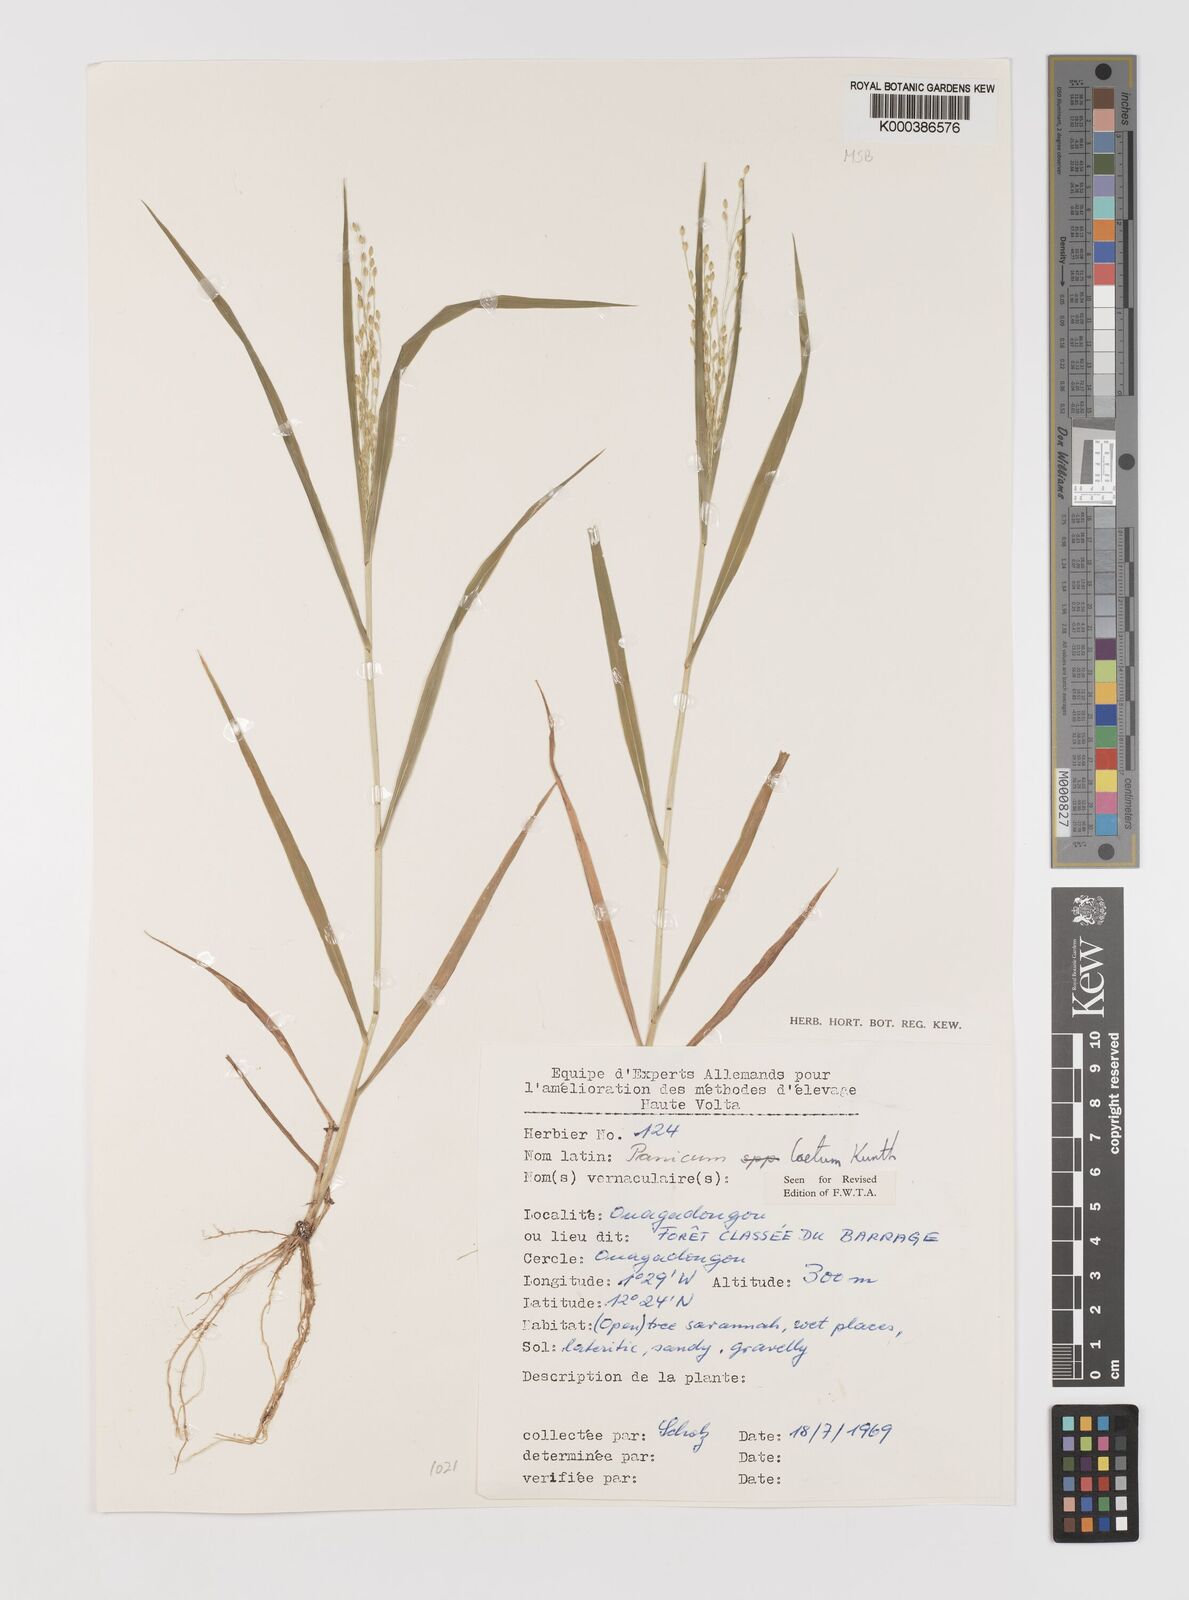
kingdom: Plantae
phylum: Tracheophyta
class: Liliopsida
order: Poales
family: Poaceae
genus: Panicum
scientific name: Panicum laetum
